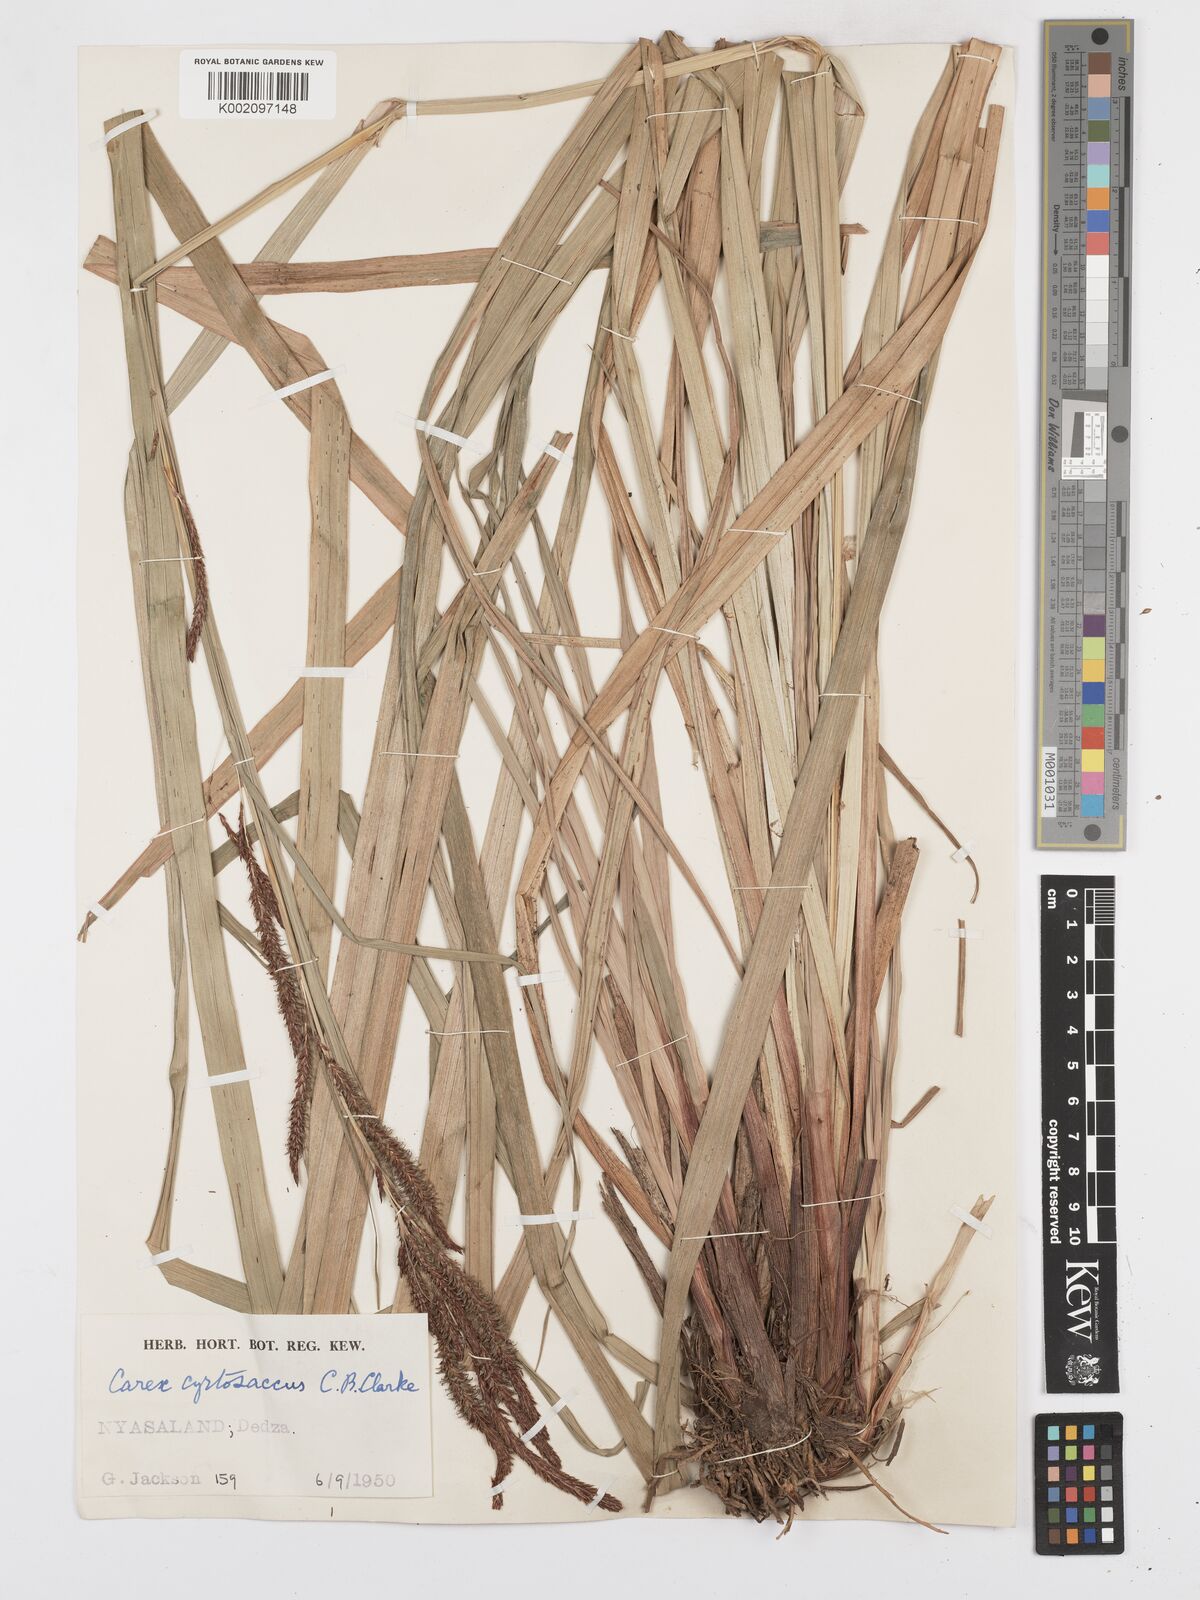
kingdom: Plantae
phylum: Tracheophyta
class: Liliopsida
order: Poales
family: Cyperaceae
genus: Carex
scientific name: Carex vallis-rosetto
